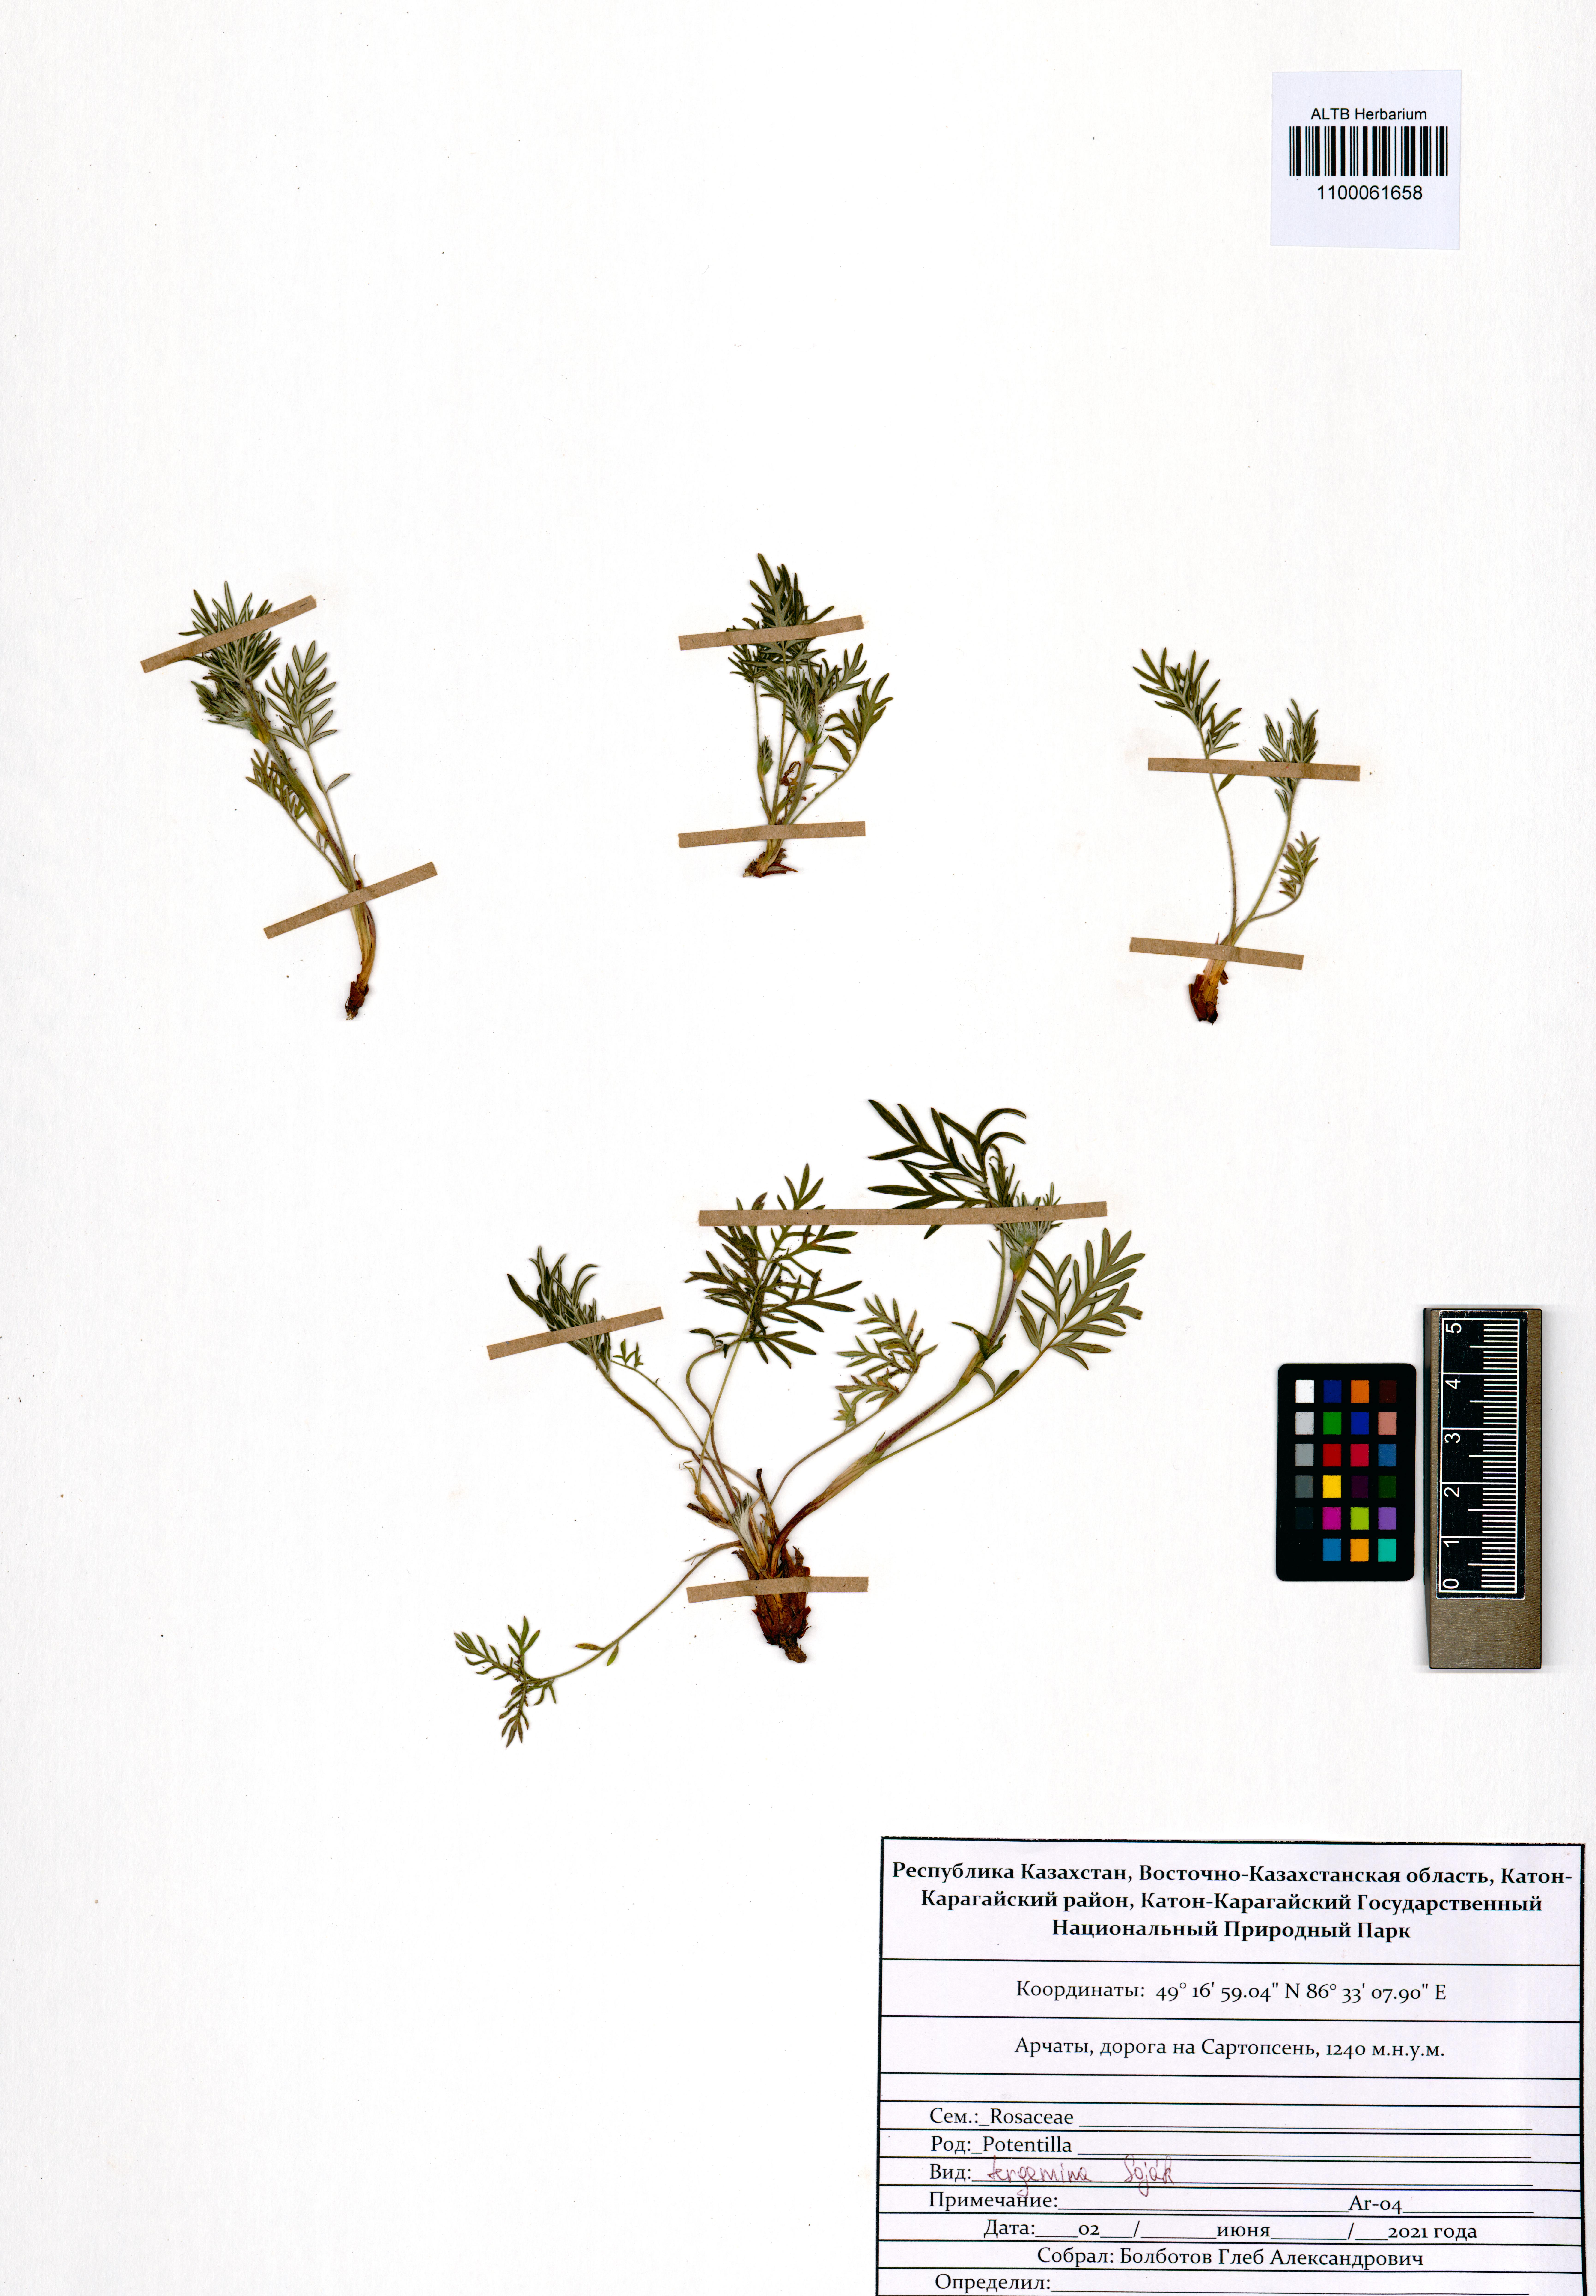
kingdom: Plantae
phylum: Tracheophyta
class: Magnoliopsida
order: Rosales
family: Rosaceae
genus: Potentilla
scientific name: Potentilla tergemina
